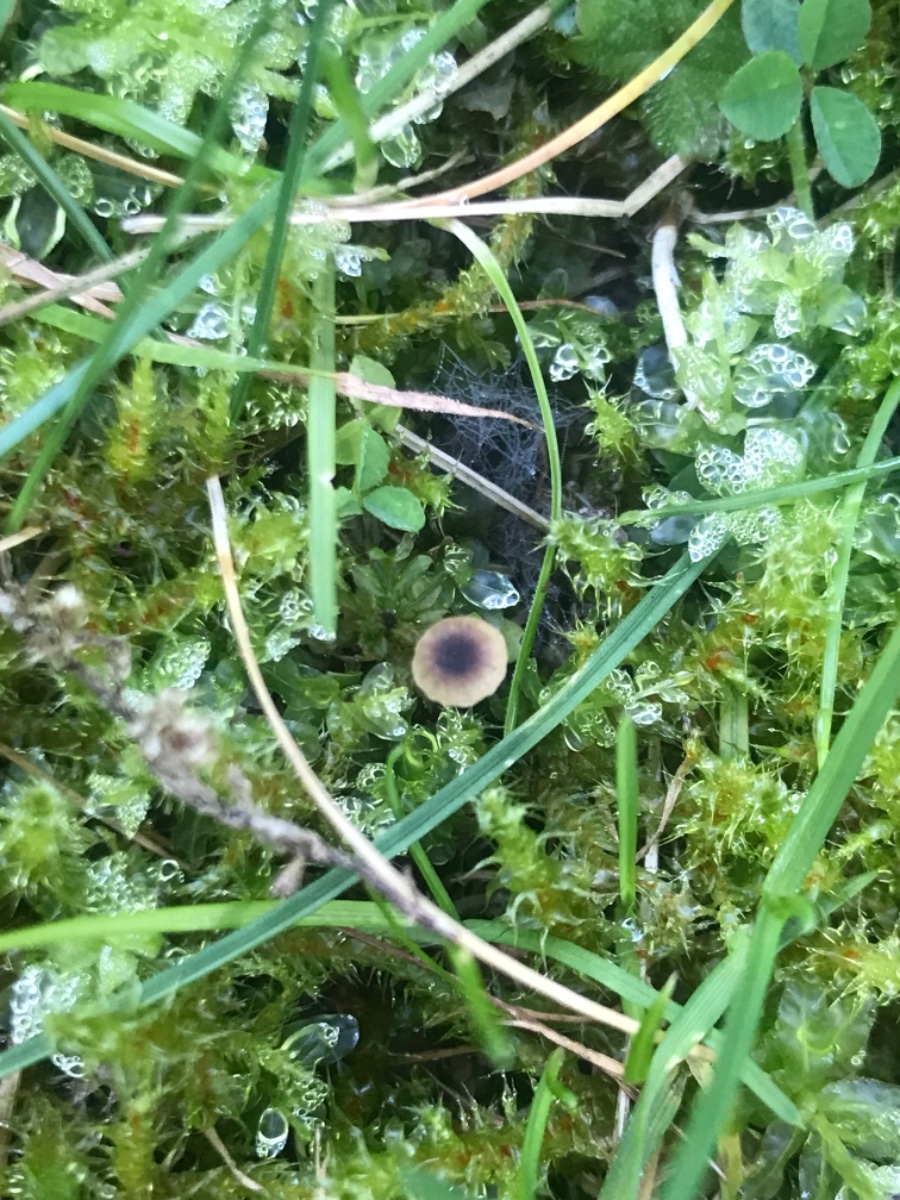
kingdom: Fungi
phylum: Basidiomycota
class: Agaricomycetes
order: Hymenochaetales
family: Rickenellaceae
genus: Rickenella
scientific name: Rickenella swartzii
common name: finstokket mosnavlehat
